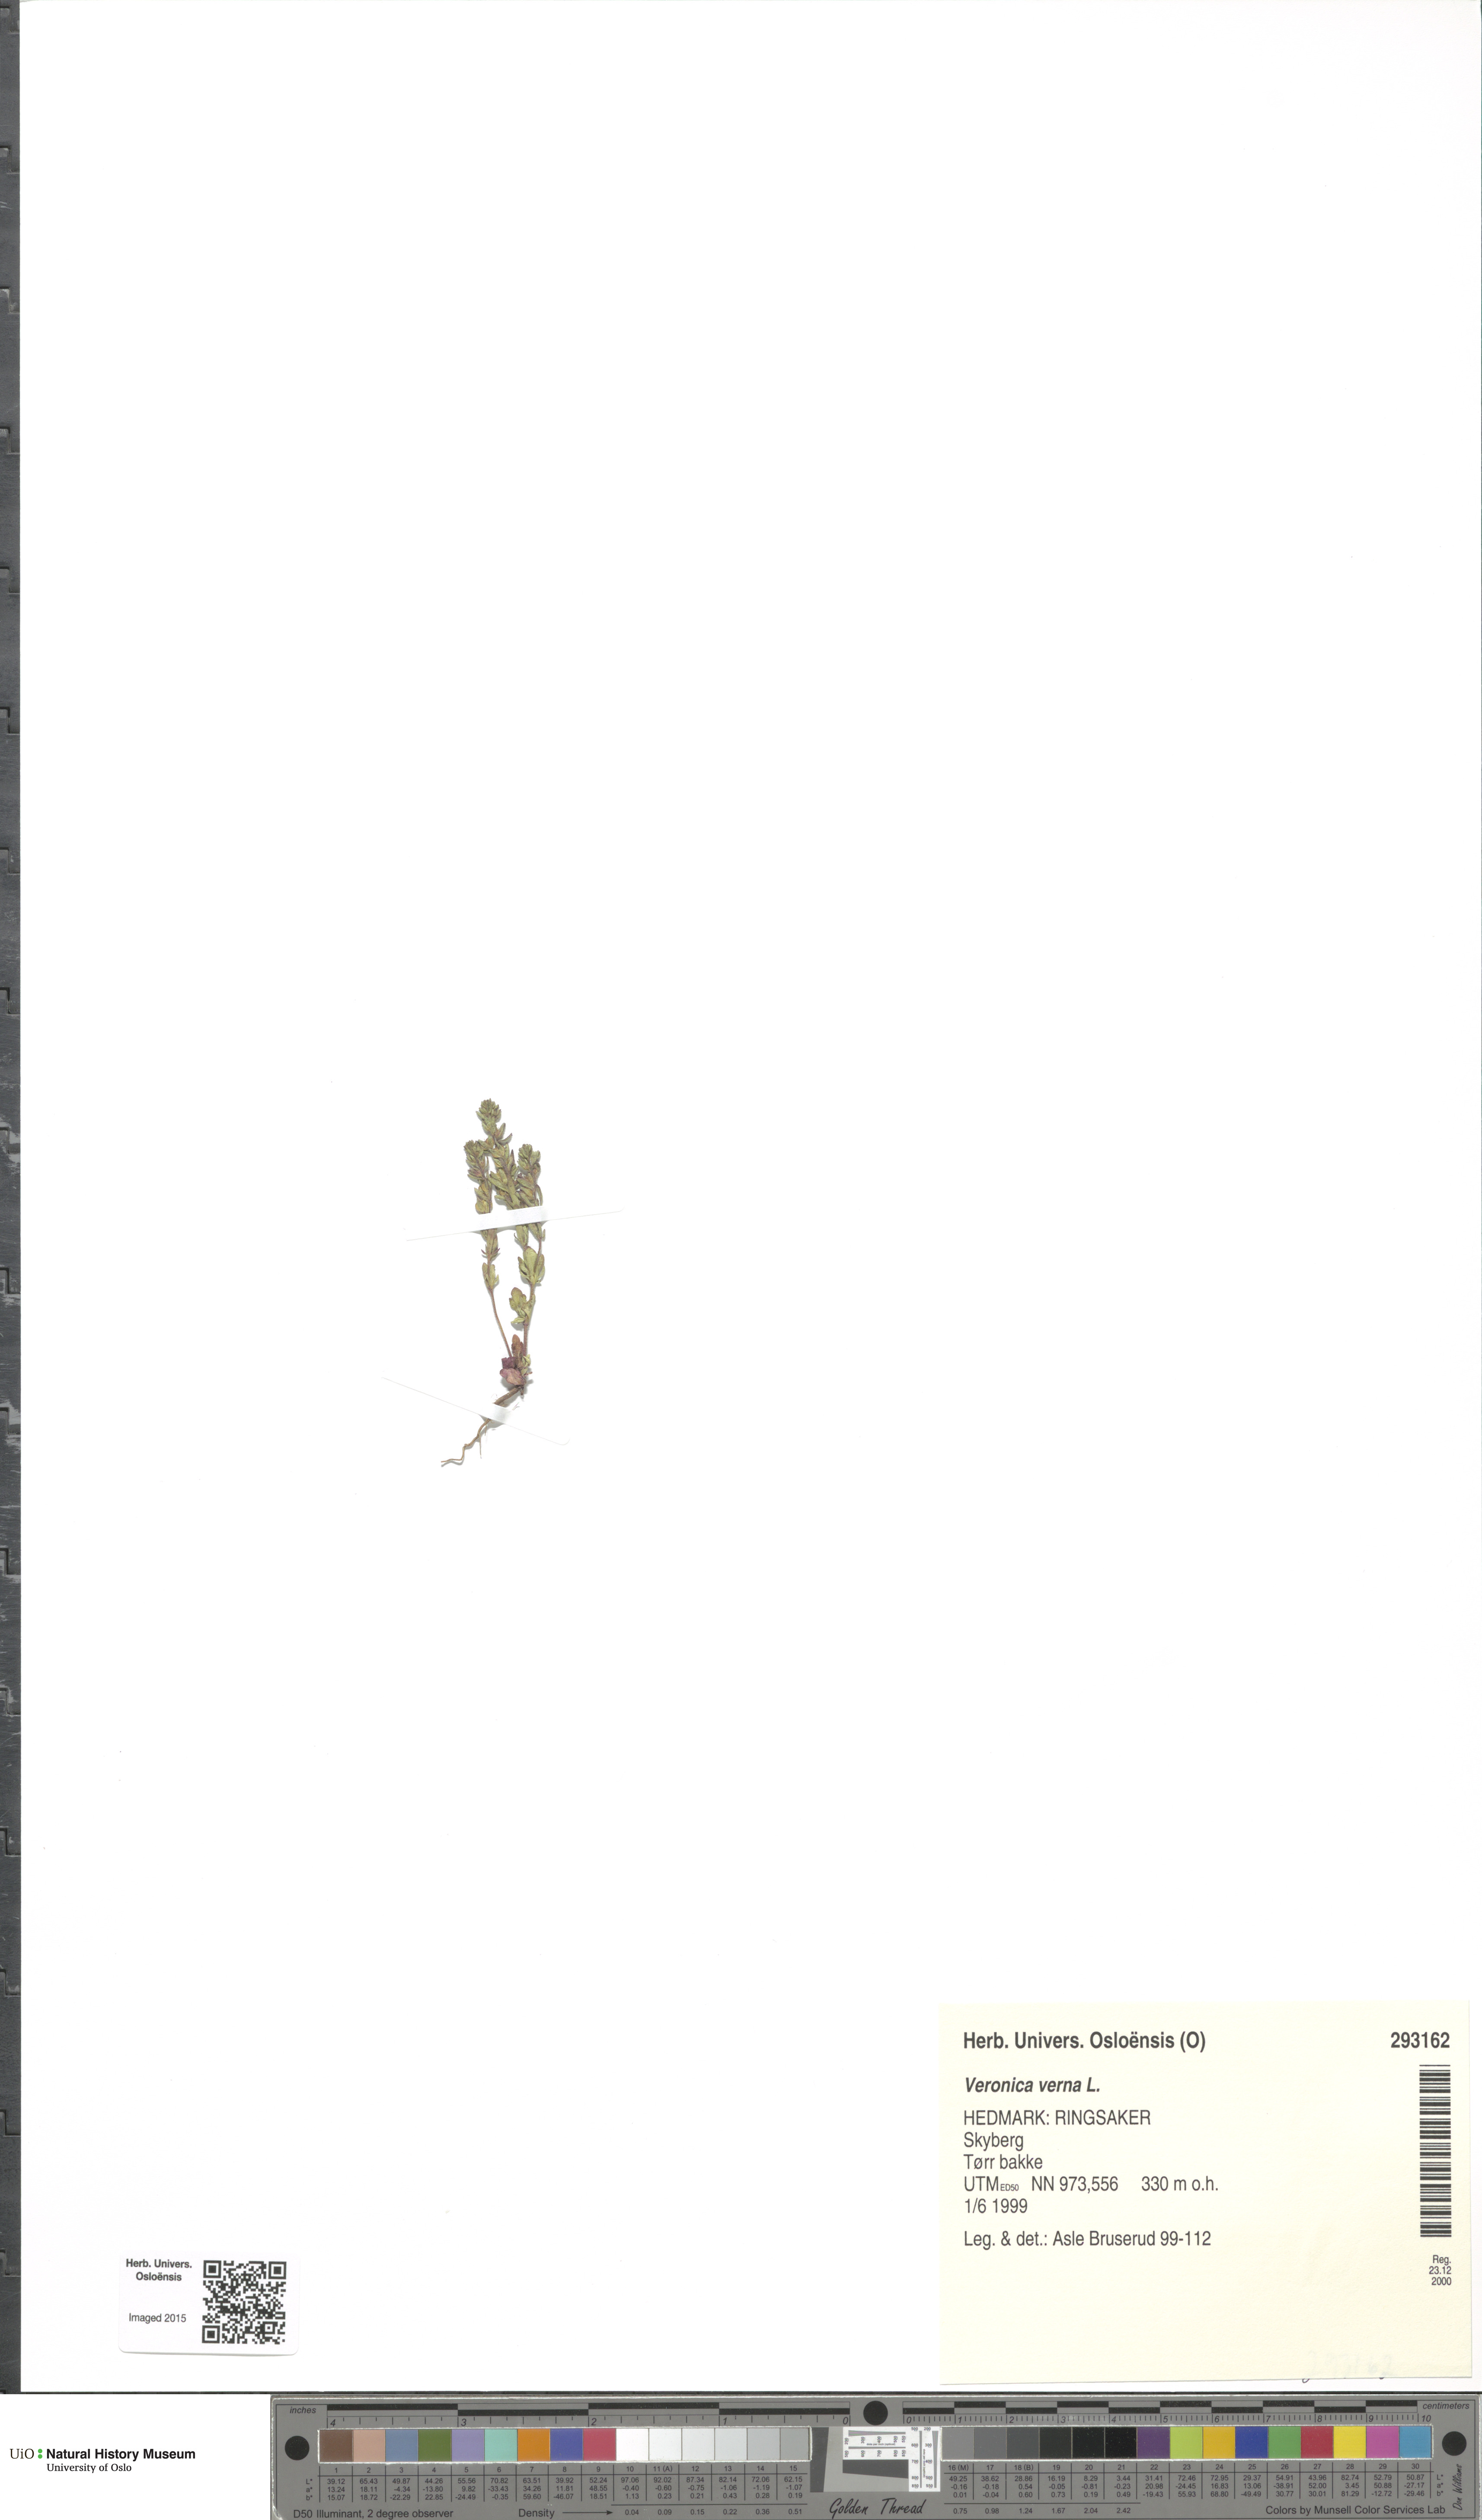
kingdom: Plantae
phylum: Tracheophyta
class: Magnoliopsida
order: Lamiales
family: Plantaginaceae
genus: Veronica
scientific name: Veronica verna
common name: Spring speedwell
